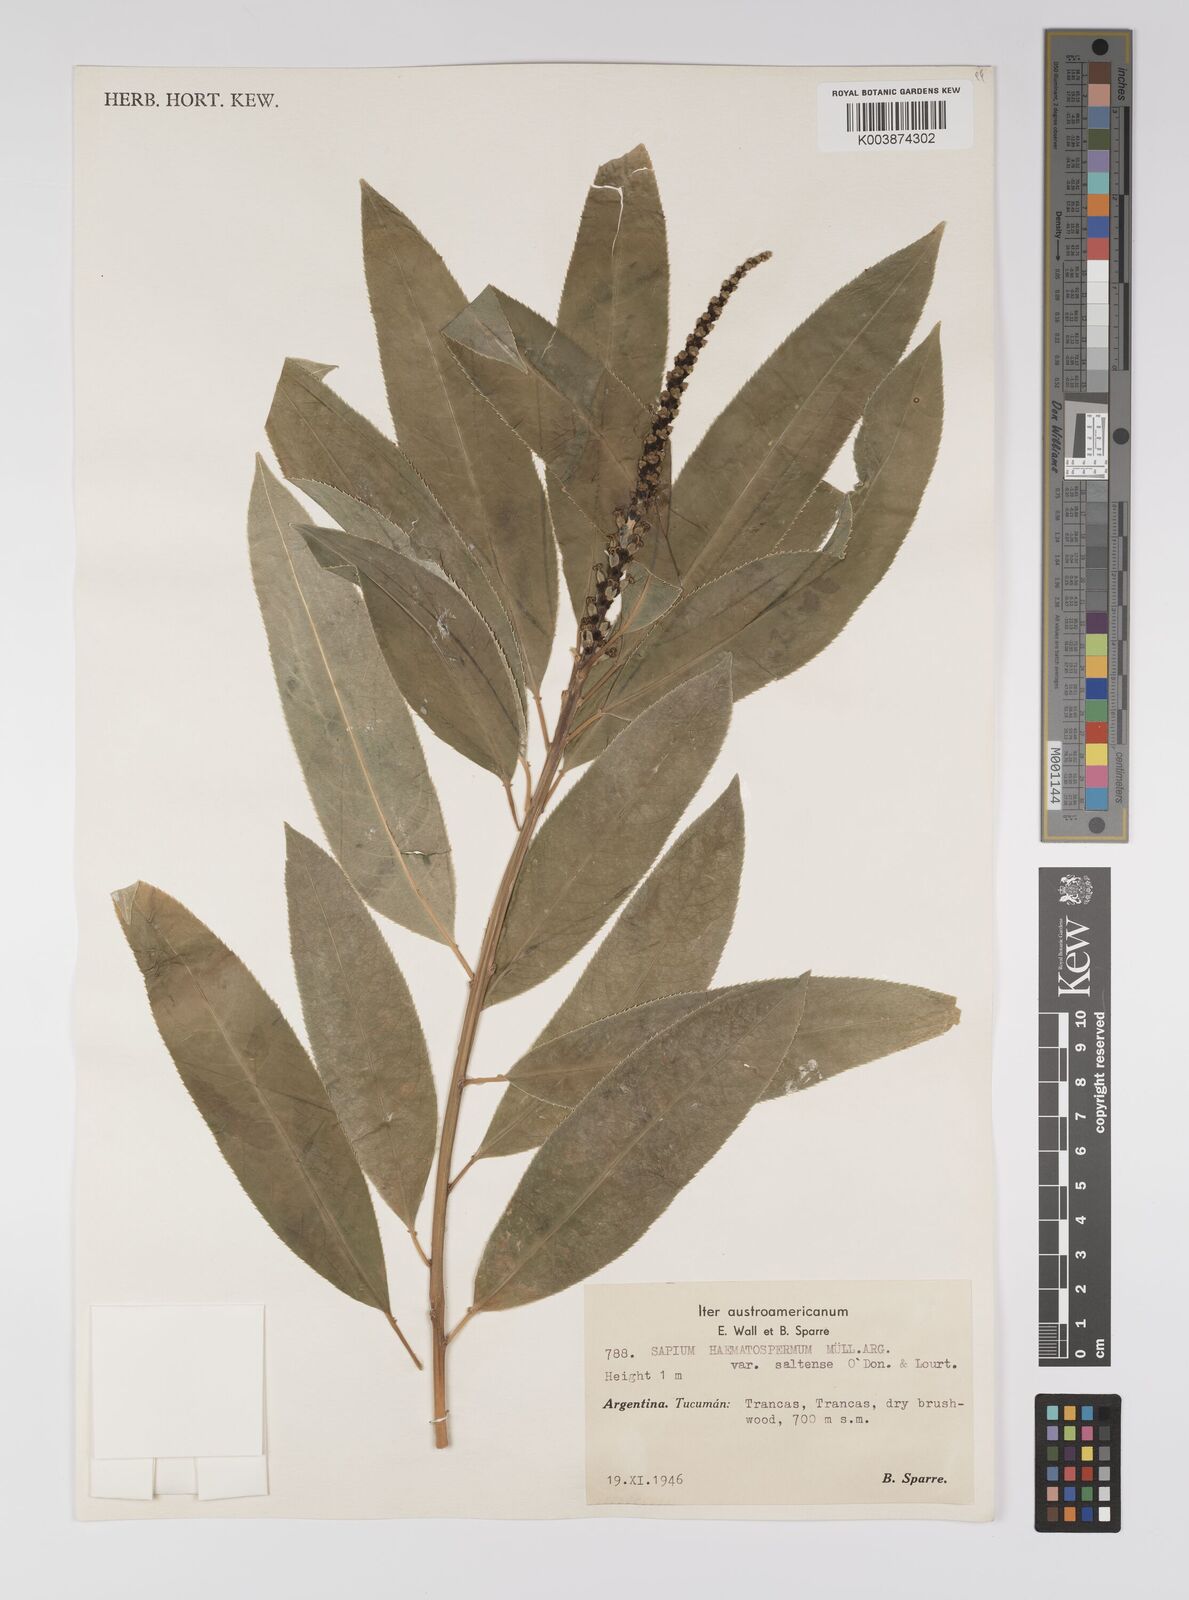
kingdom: Plantae
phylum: Tracheophyta
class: Magnoliopsida
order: Malpighiales
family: Euphorbiaceae
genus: Sapium
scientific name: Sapium haematospermum
